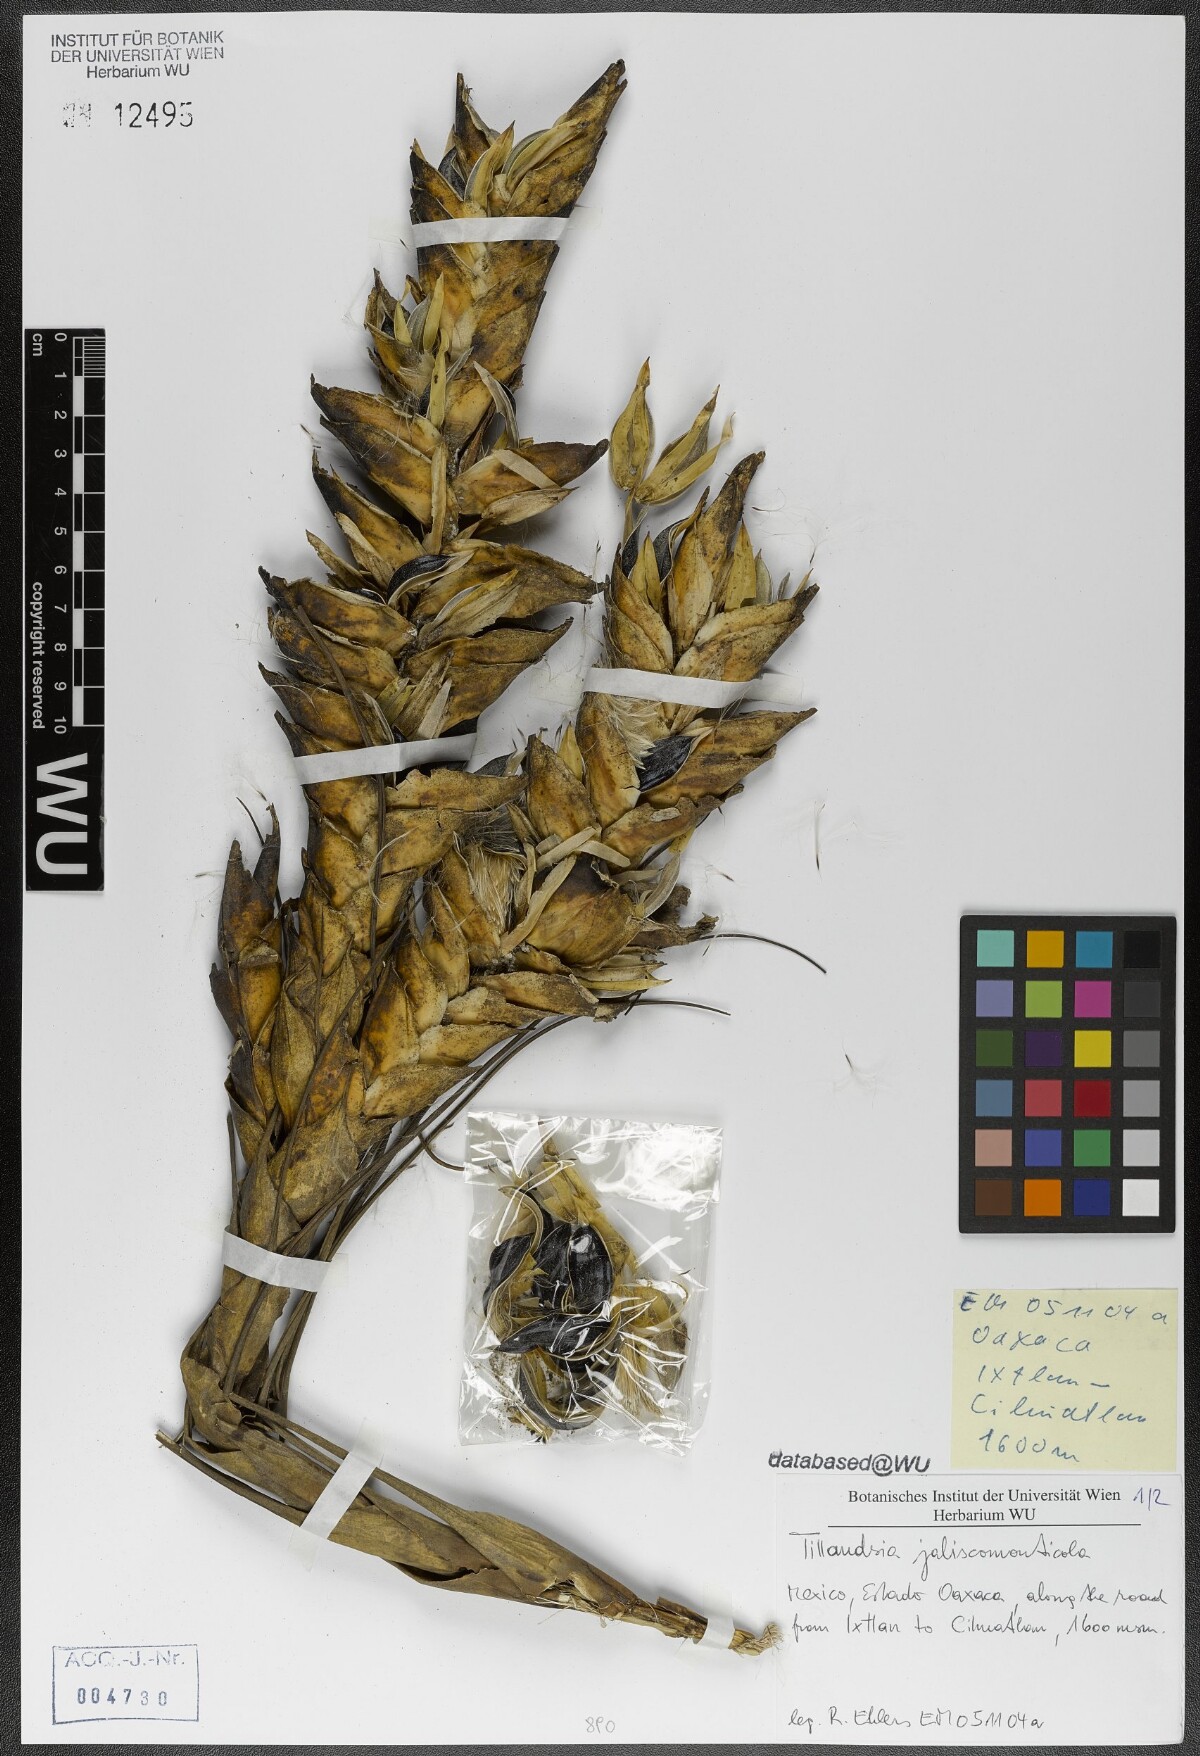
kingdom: Plantae
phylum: Tracheophyta
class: Liliopsida
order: Poales
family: Bromeliaceae
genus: Tillandsia
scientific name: Tillandsia compressa
